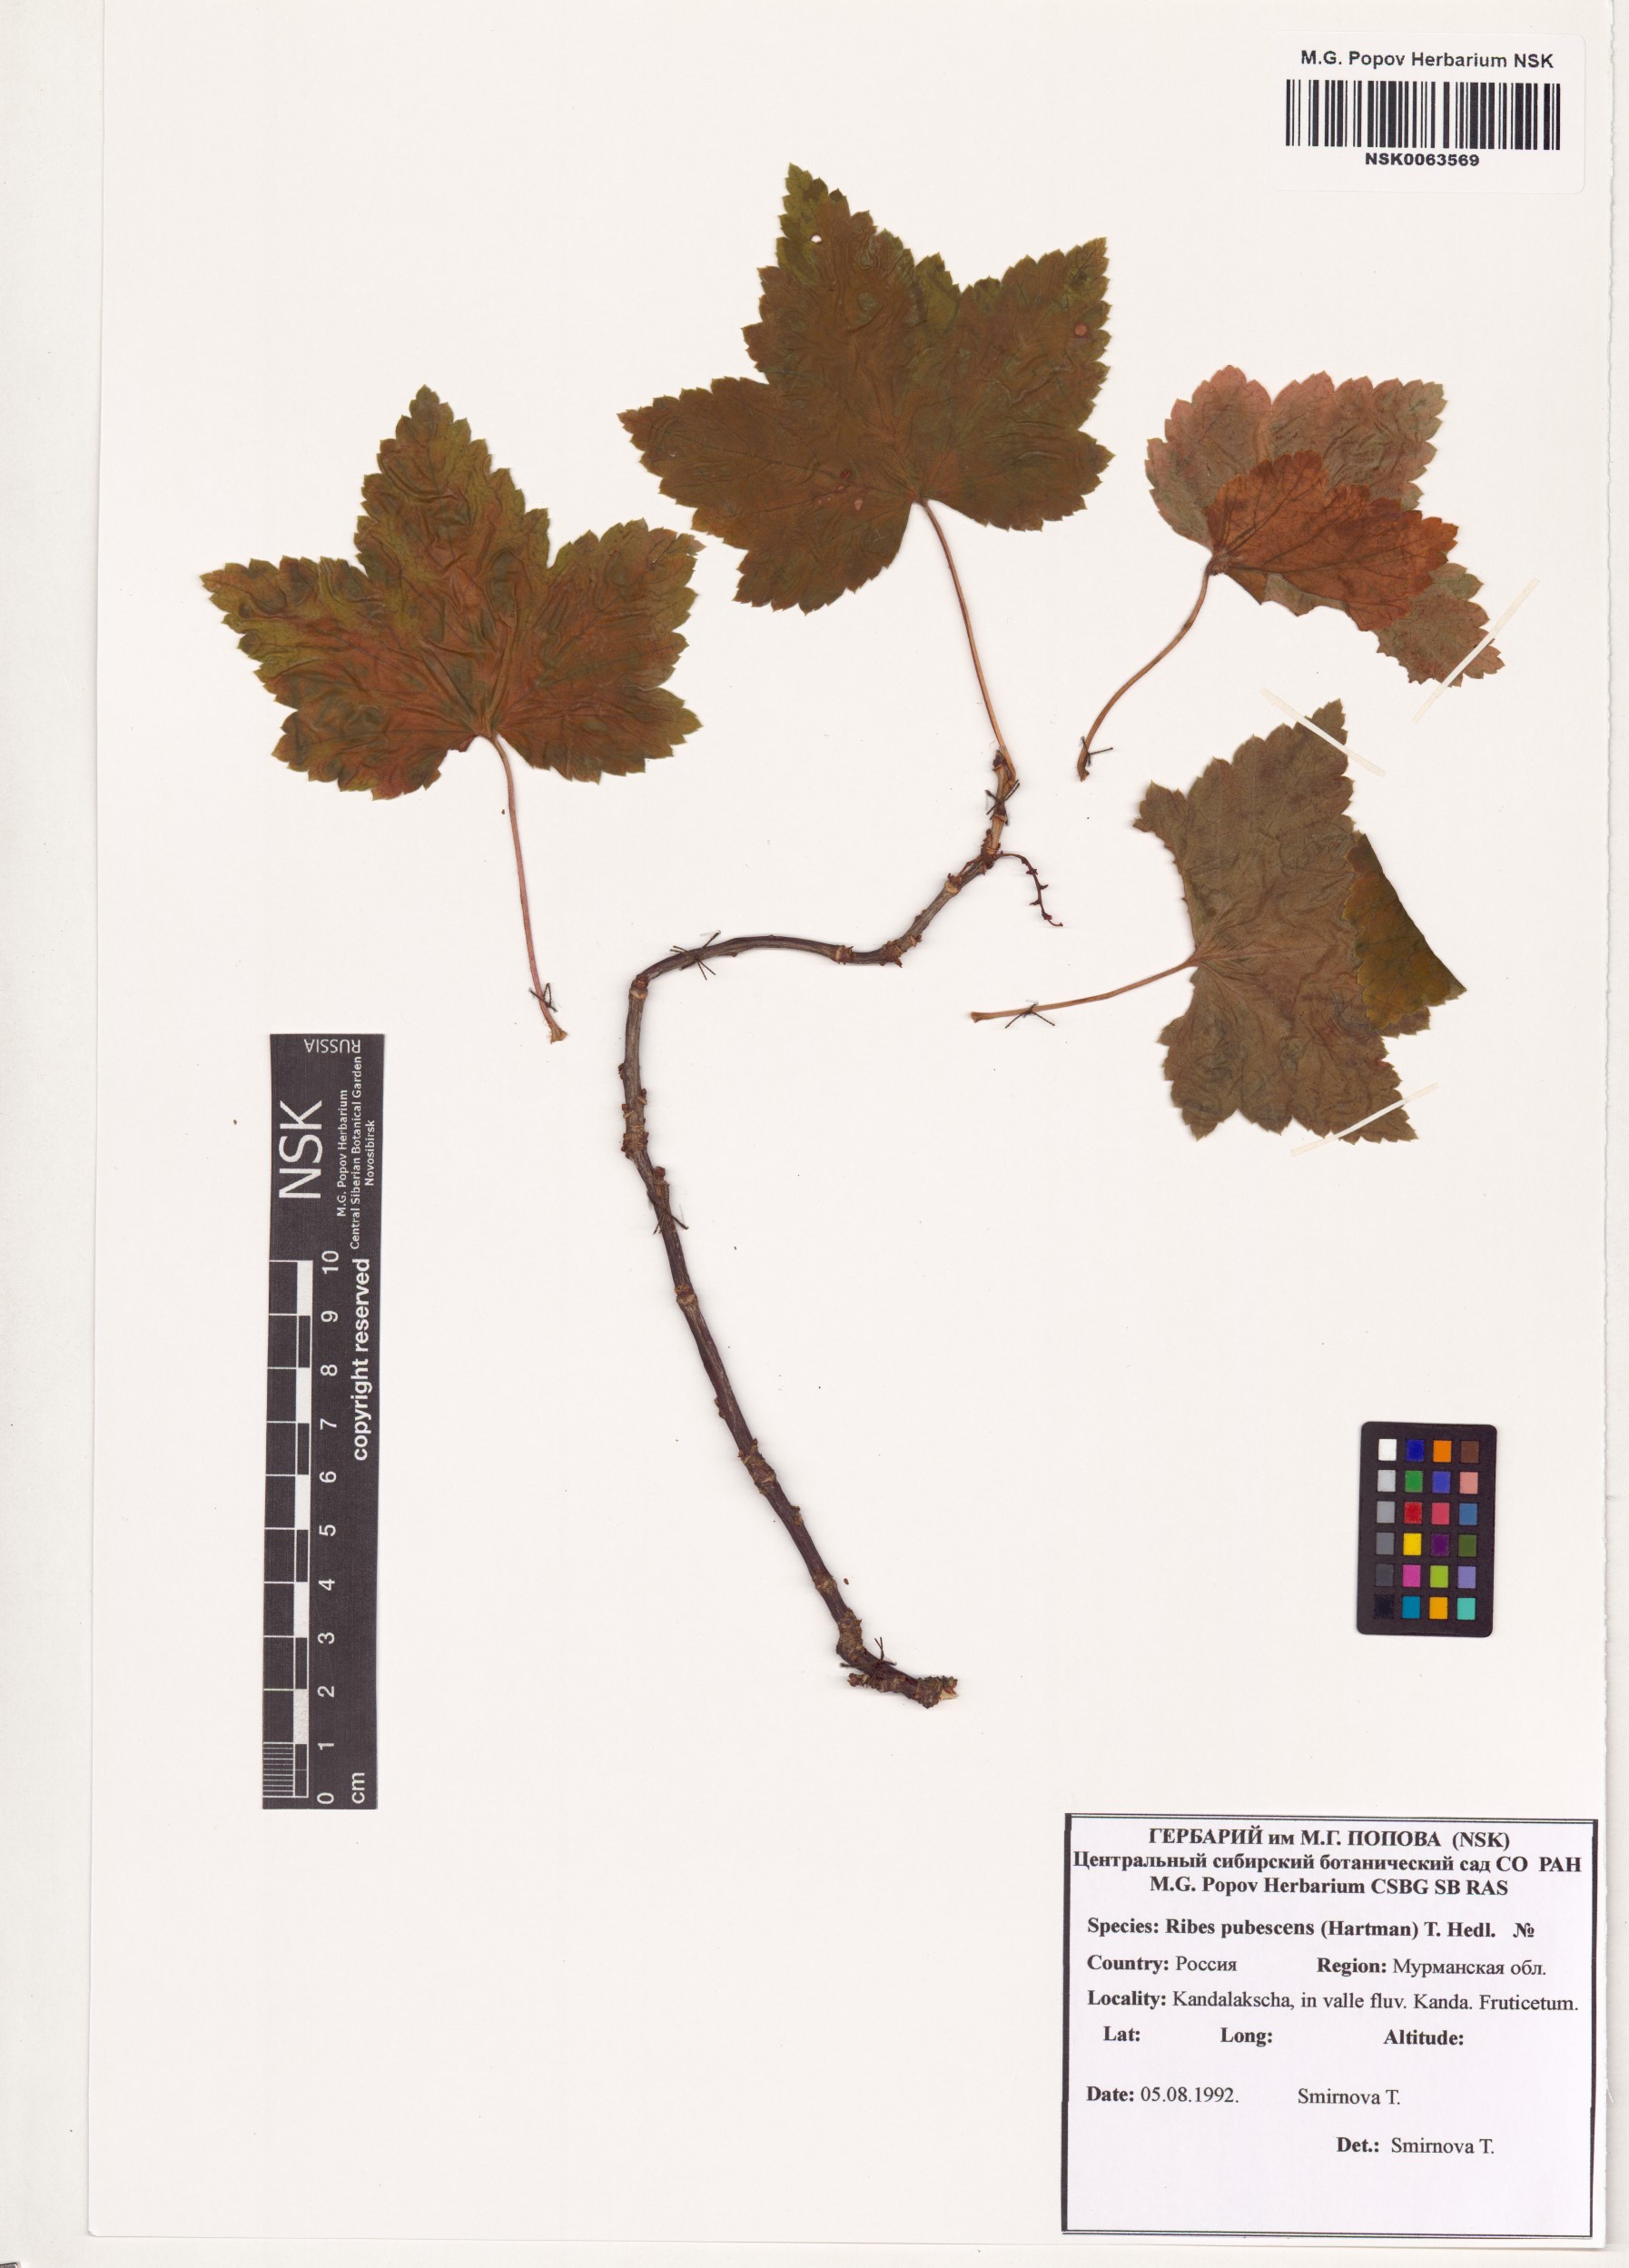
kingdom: Plantae
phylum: Tracheophyta
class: Magnoliopsida
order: Saxifragales
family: Grossulariaceae
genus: Ribes
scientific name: Ribes spicatum
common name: Downy currant
